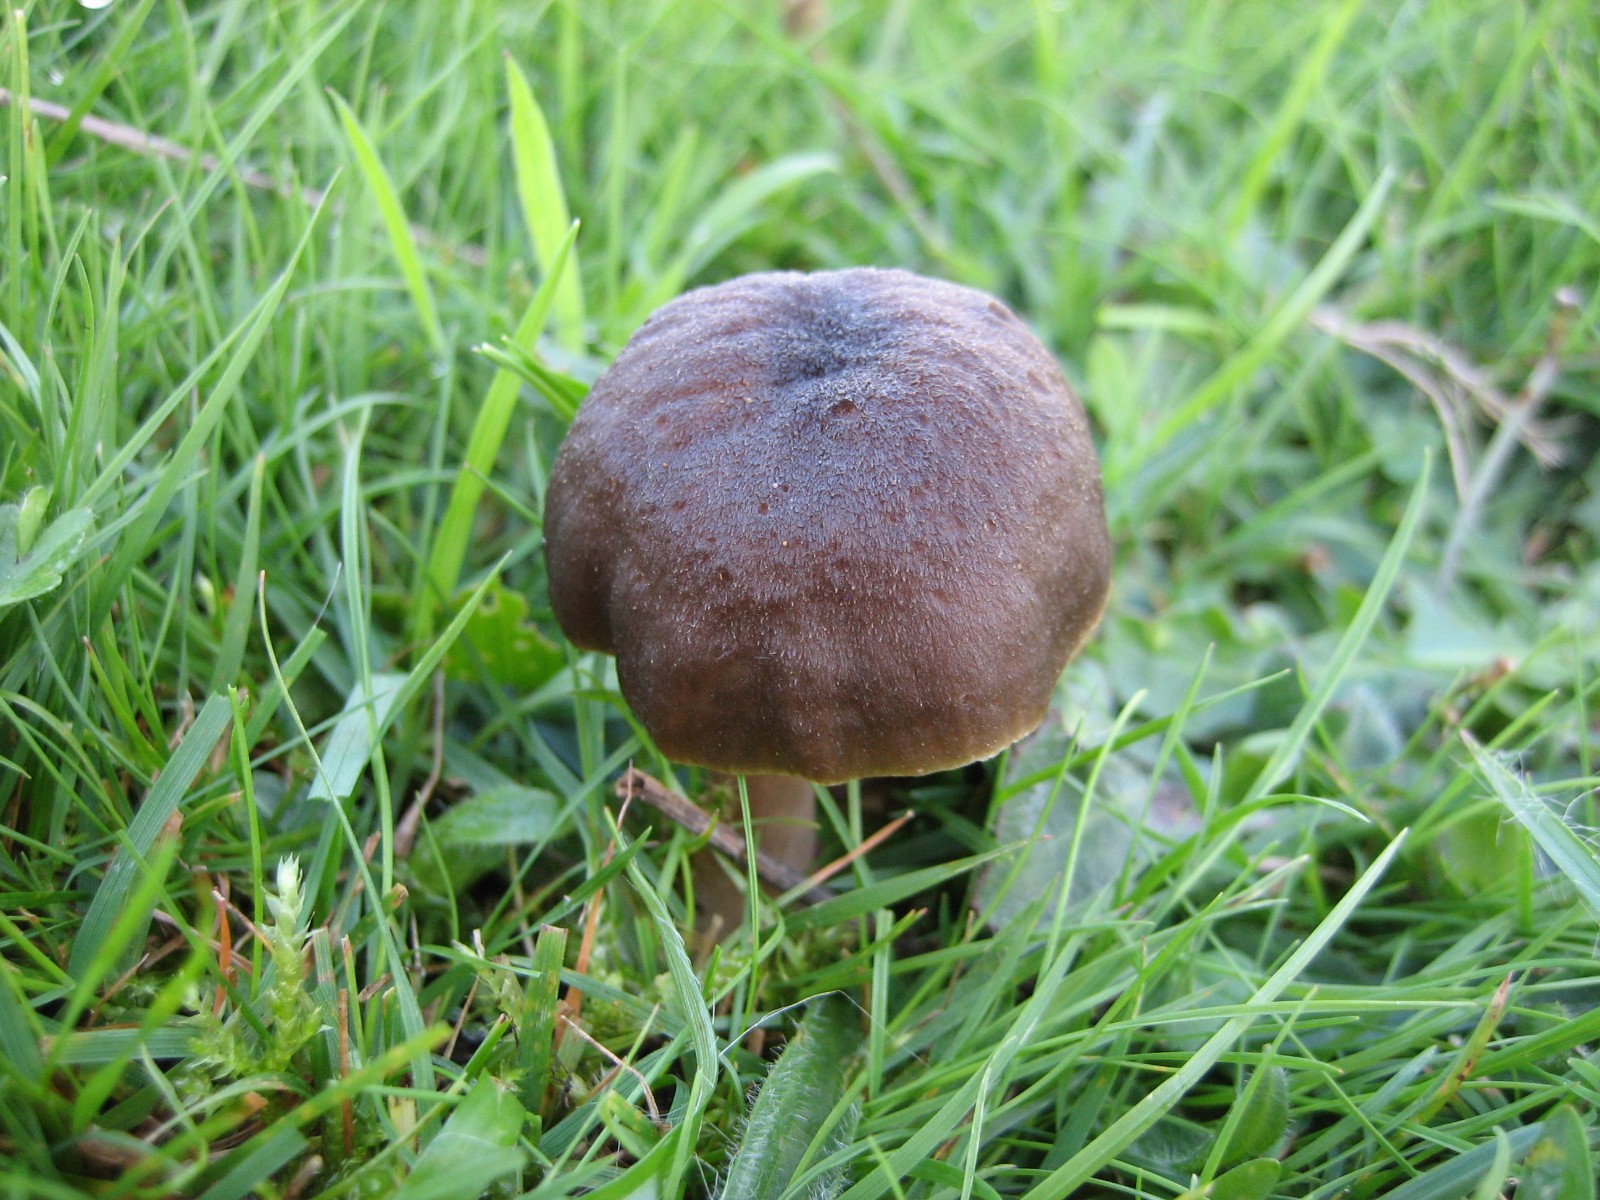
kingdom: Fungi
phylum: Basidiomycota
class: Agaricomycetes
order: Agaricales
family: Hygrophoraceae
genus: Neohygrocybe
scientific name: Neohygrocybe nitrata
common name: stinkende vokshat
